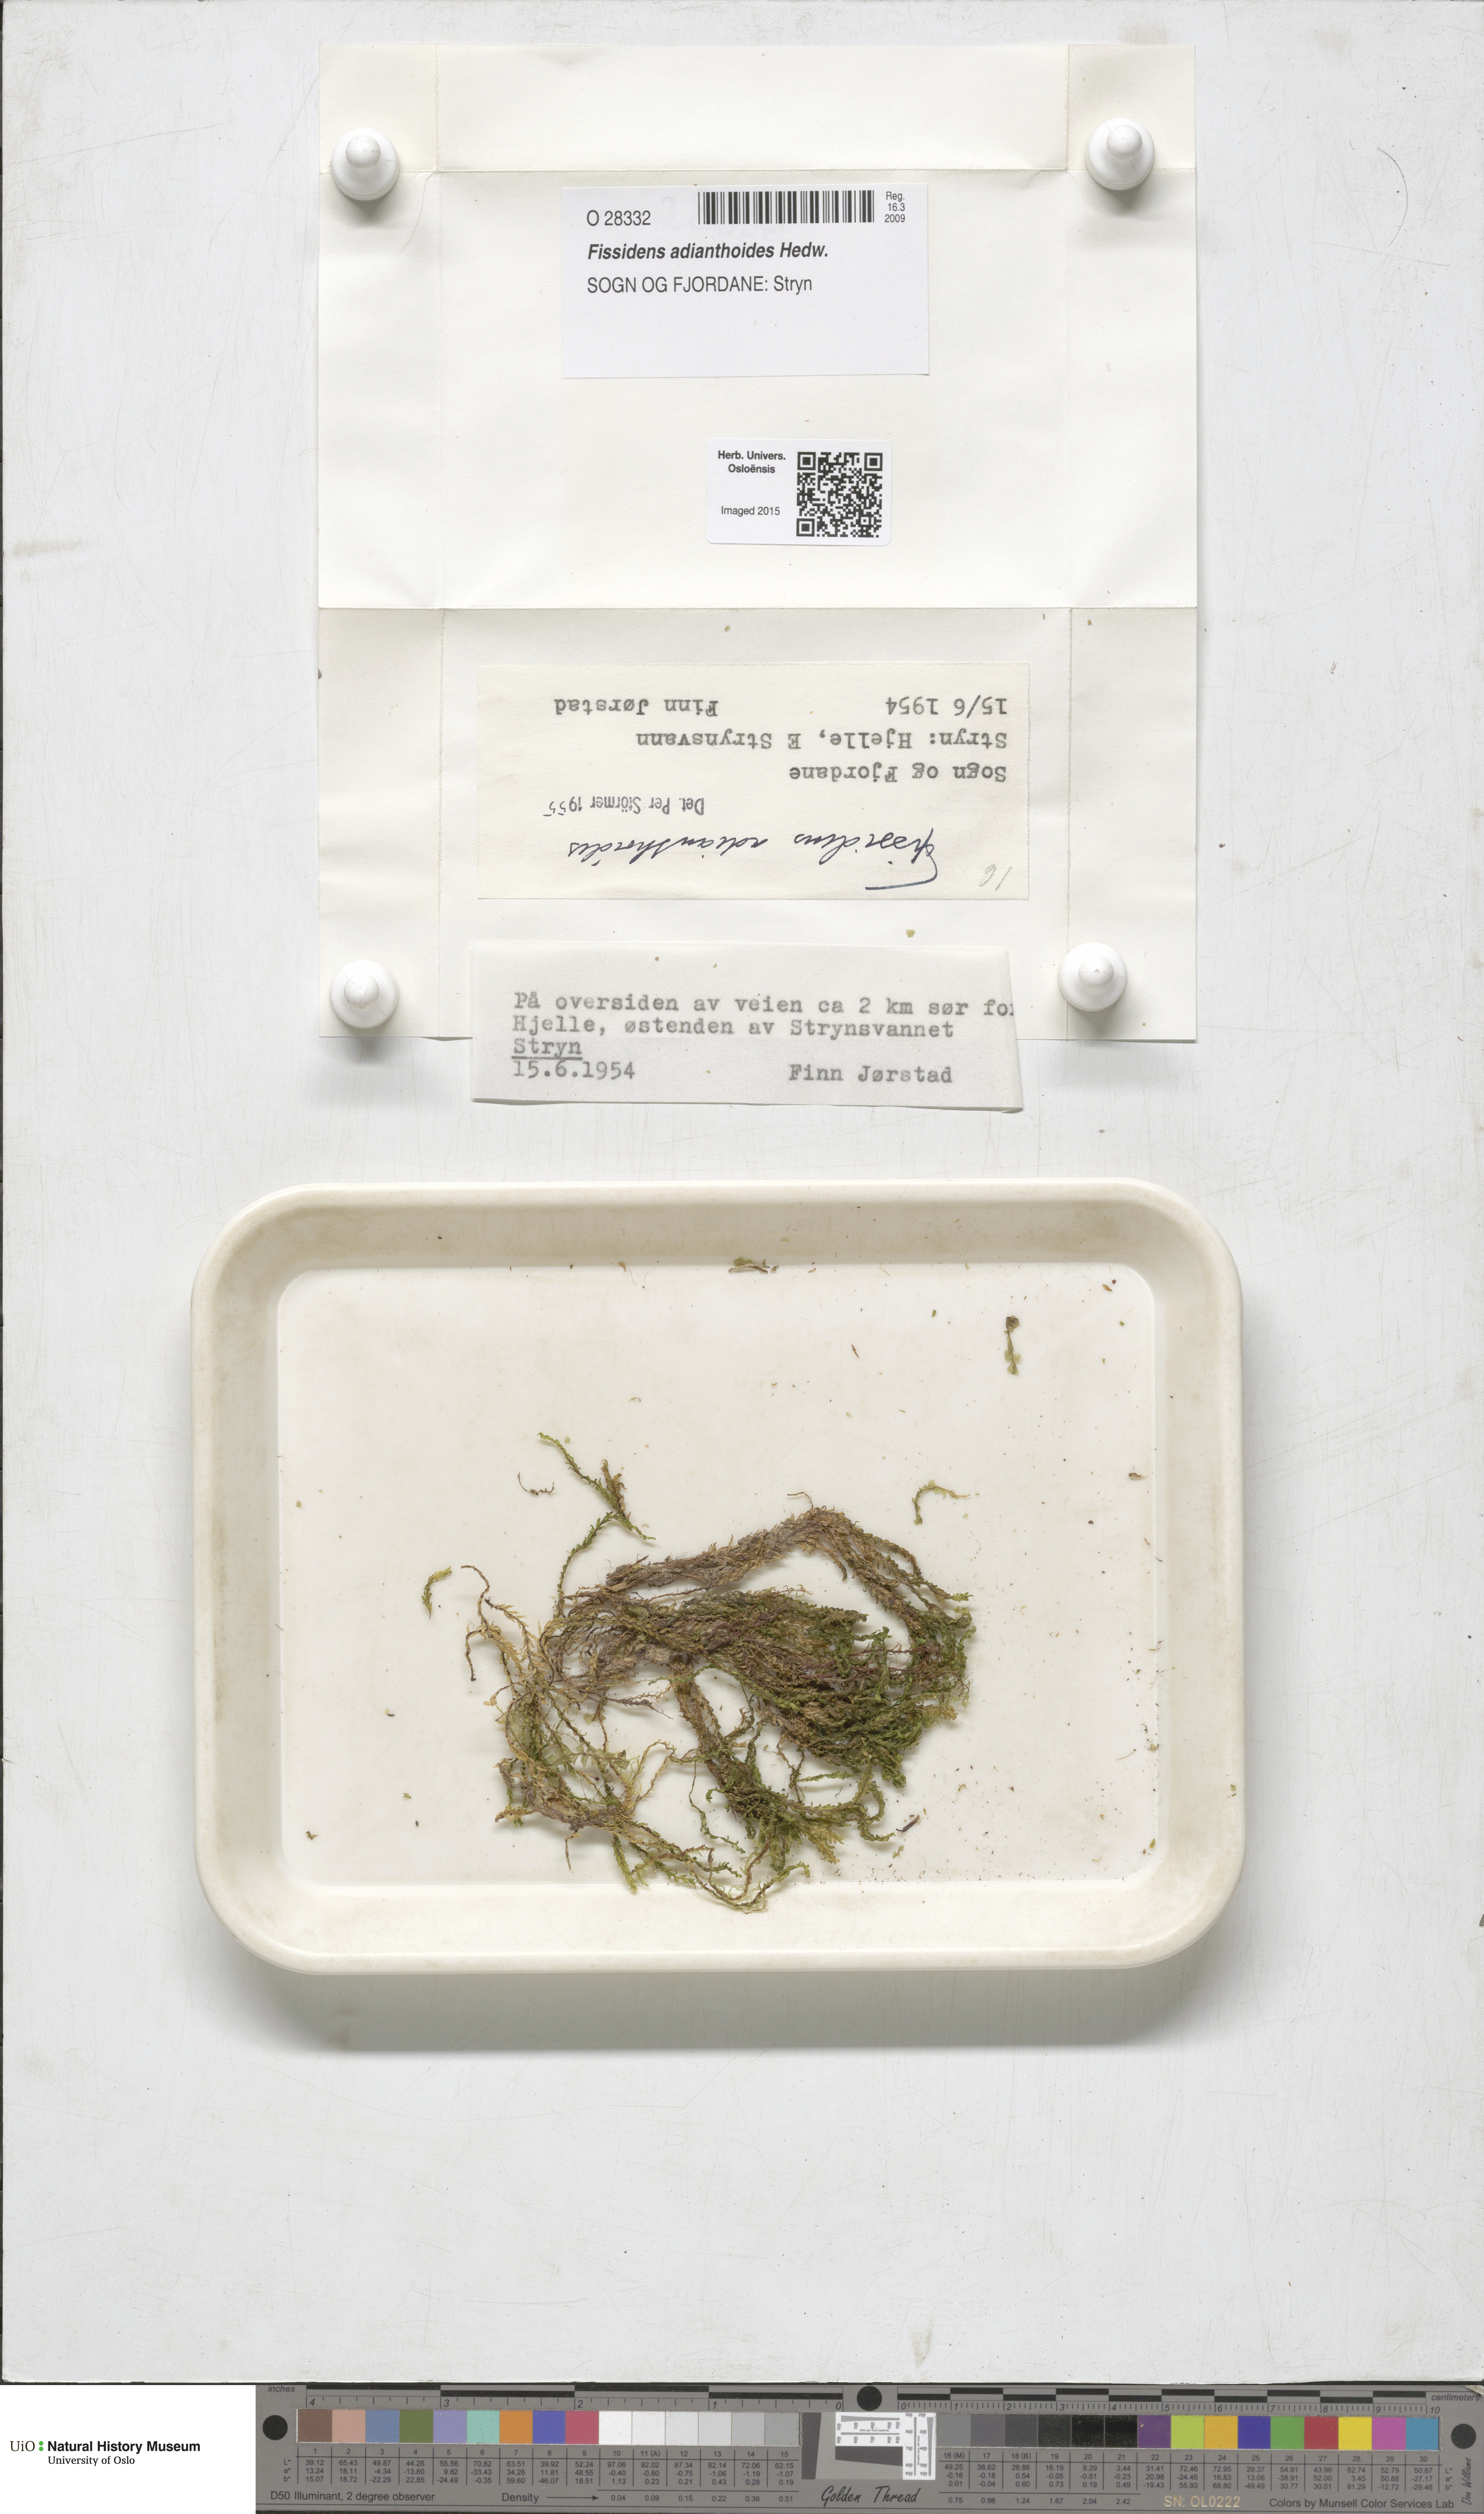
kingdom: Plantae
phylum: Bryophyta
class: Bryopsida
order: Dicranales
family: Fissidentaceae
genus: Fissidens
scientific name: Fissidens adianthoides
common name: Maidenhair pocket moss
